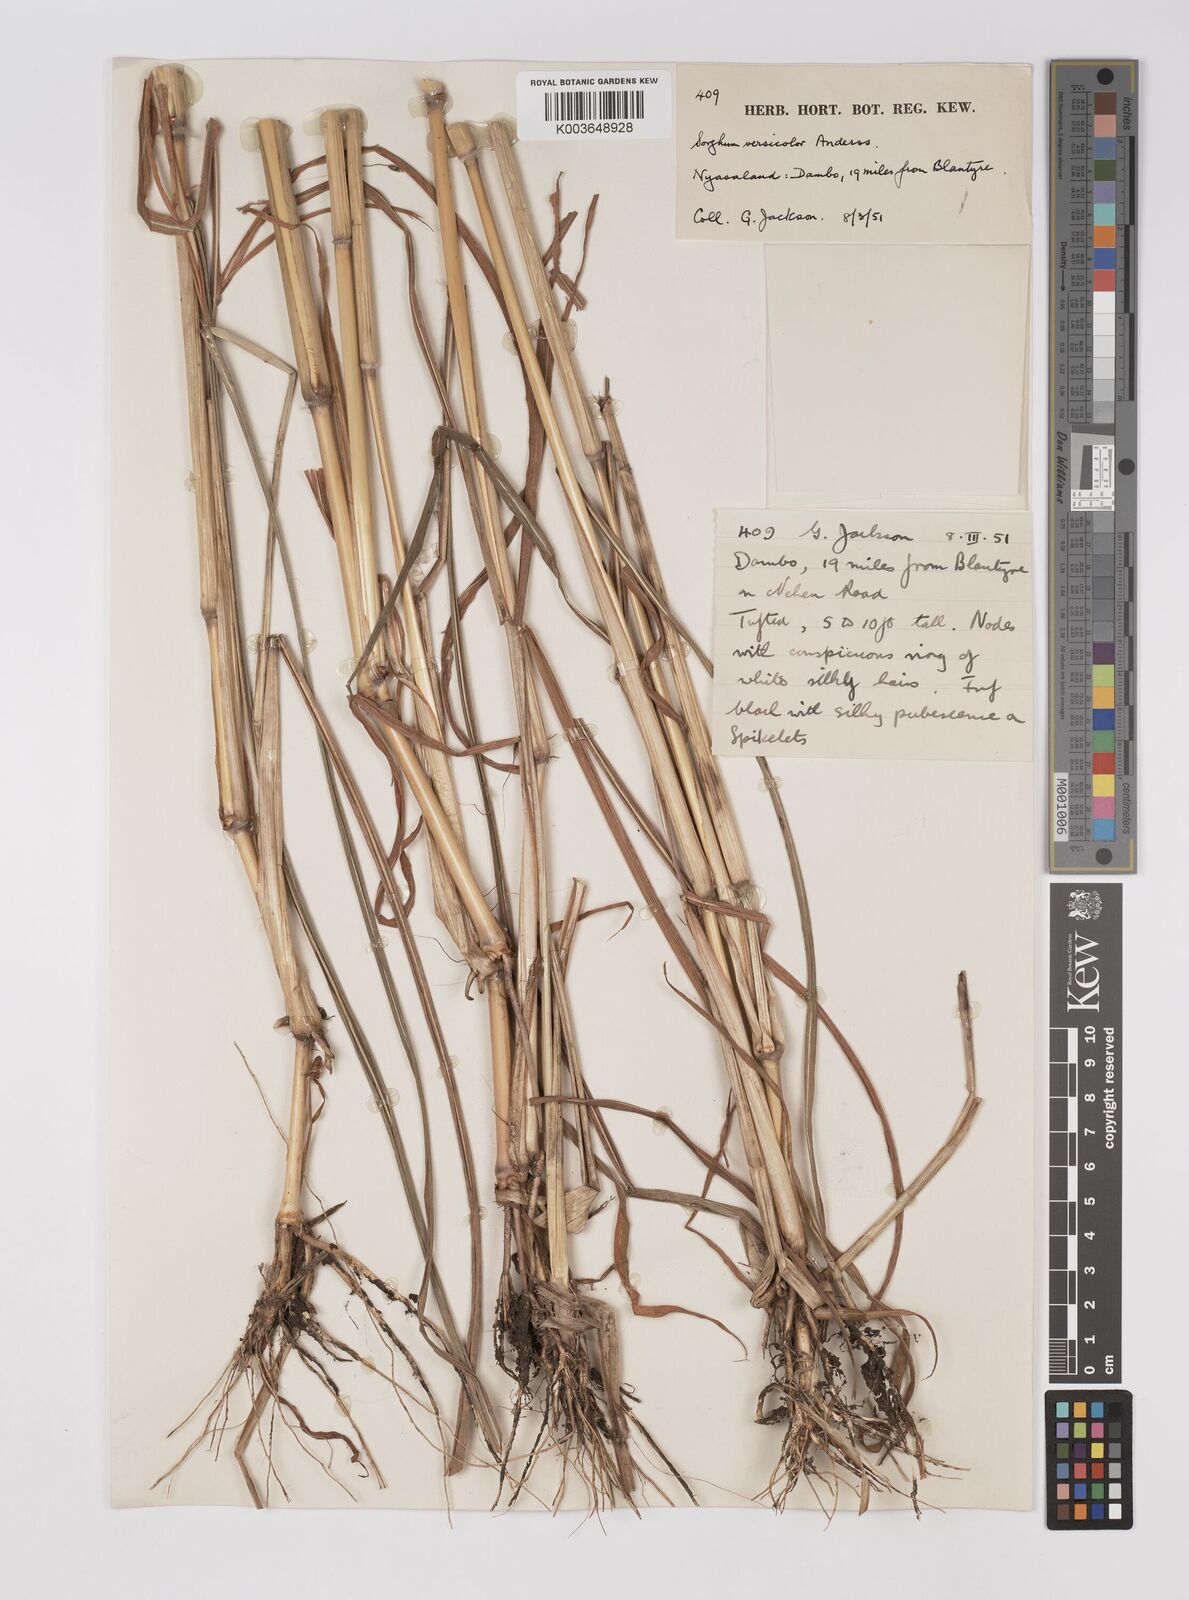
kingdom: Plantae
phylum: Tracheophyta
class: Liliopsida
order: Poales
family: Poaceae
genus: Sarga
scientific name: Sarga versicolor
